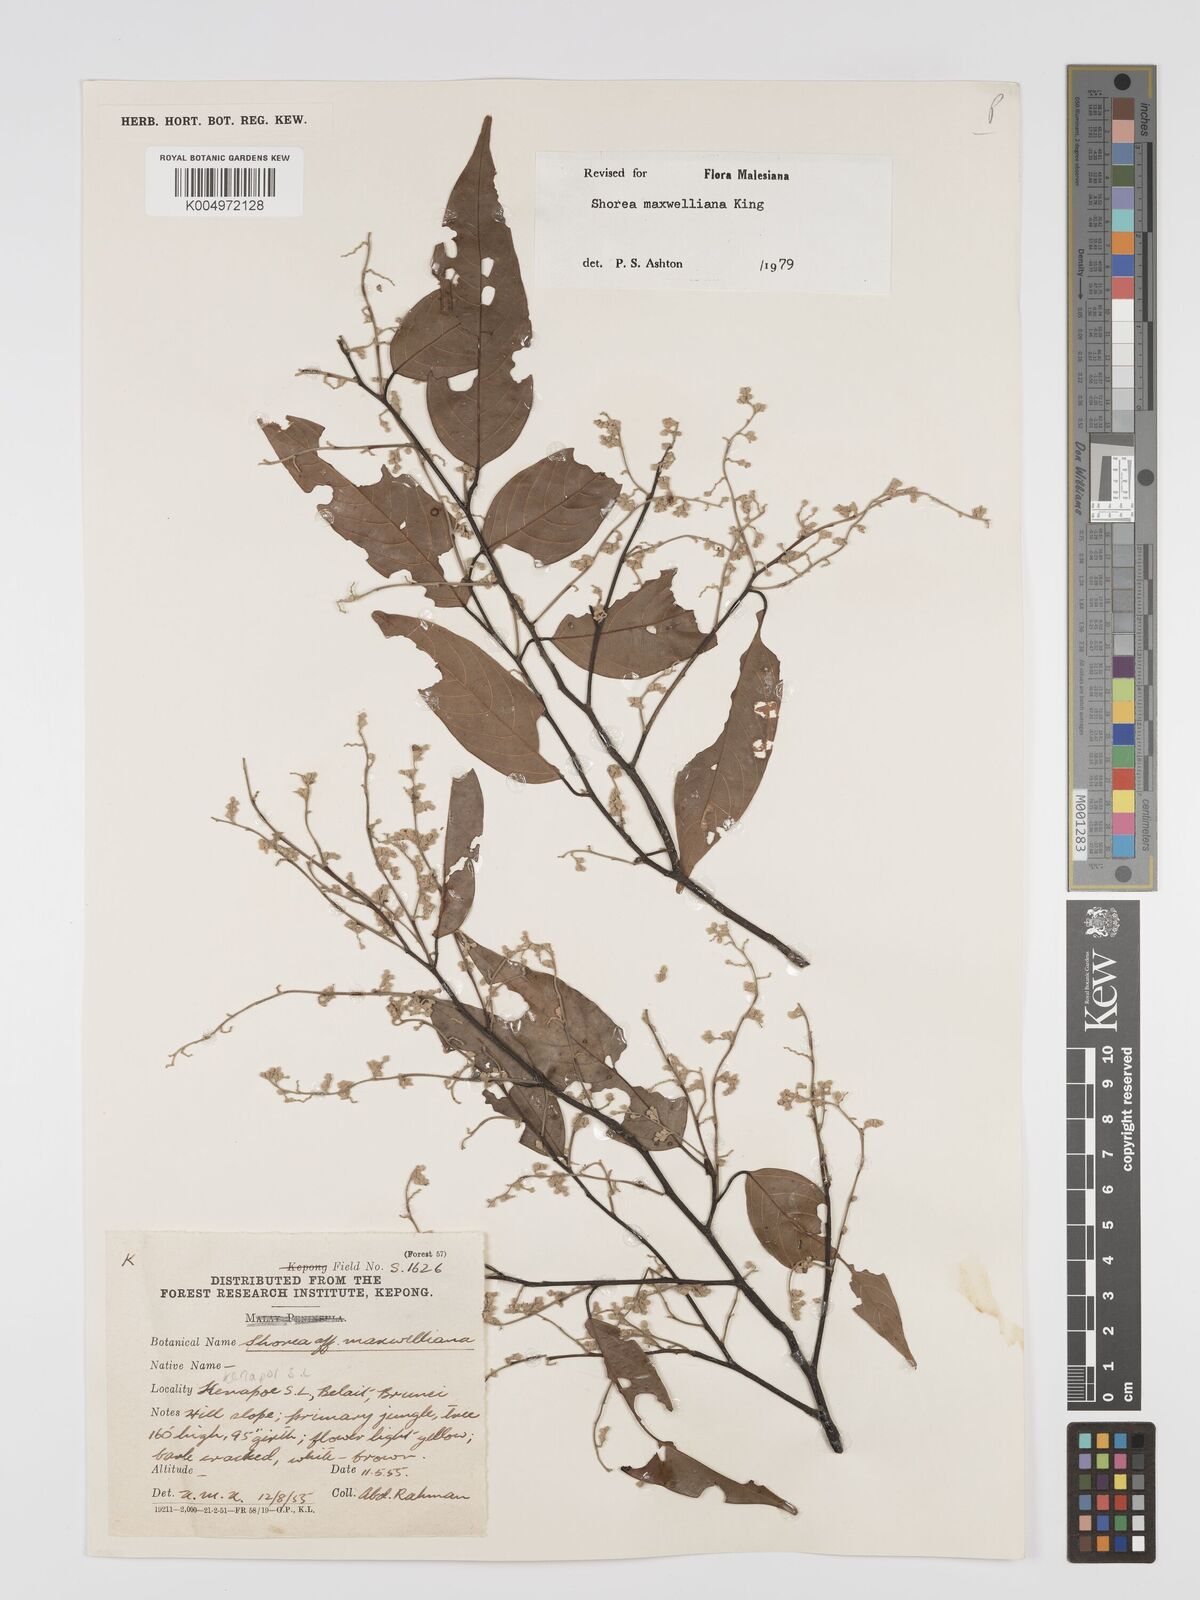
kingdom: Plantae
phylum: Tracheophyta
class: Magnoliopsida
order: Malvales
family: Dipterocarpaceae
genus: Shorea
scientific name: Shorea maxwelliana
